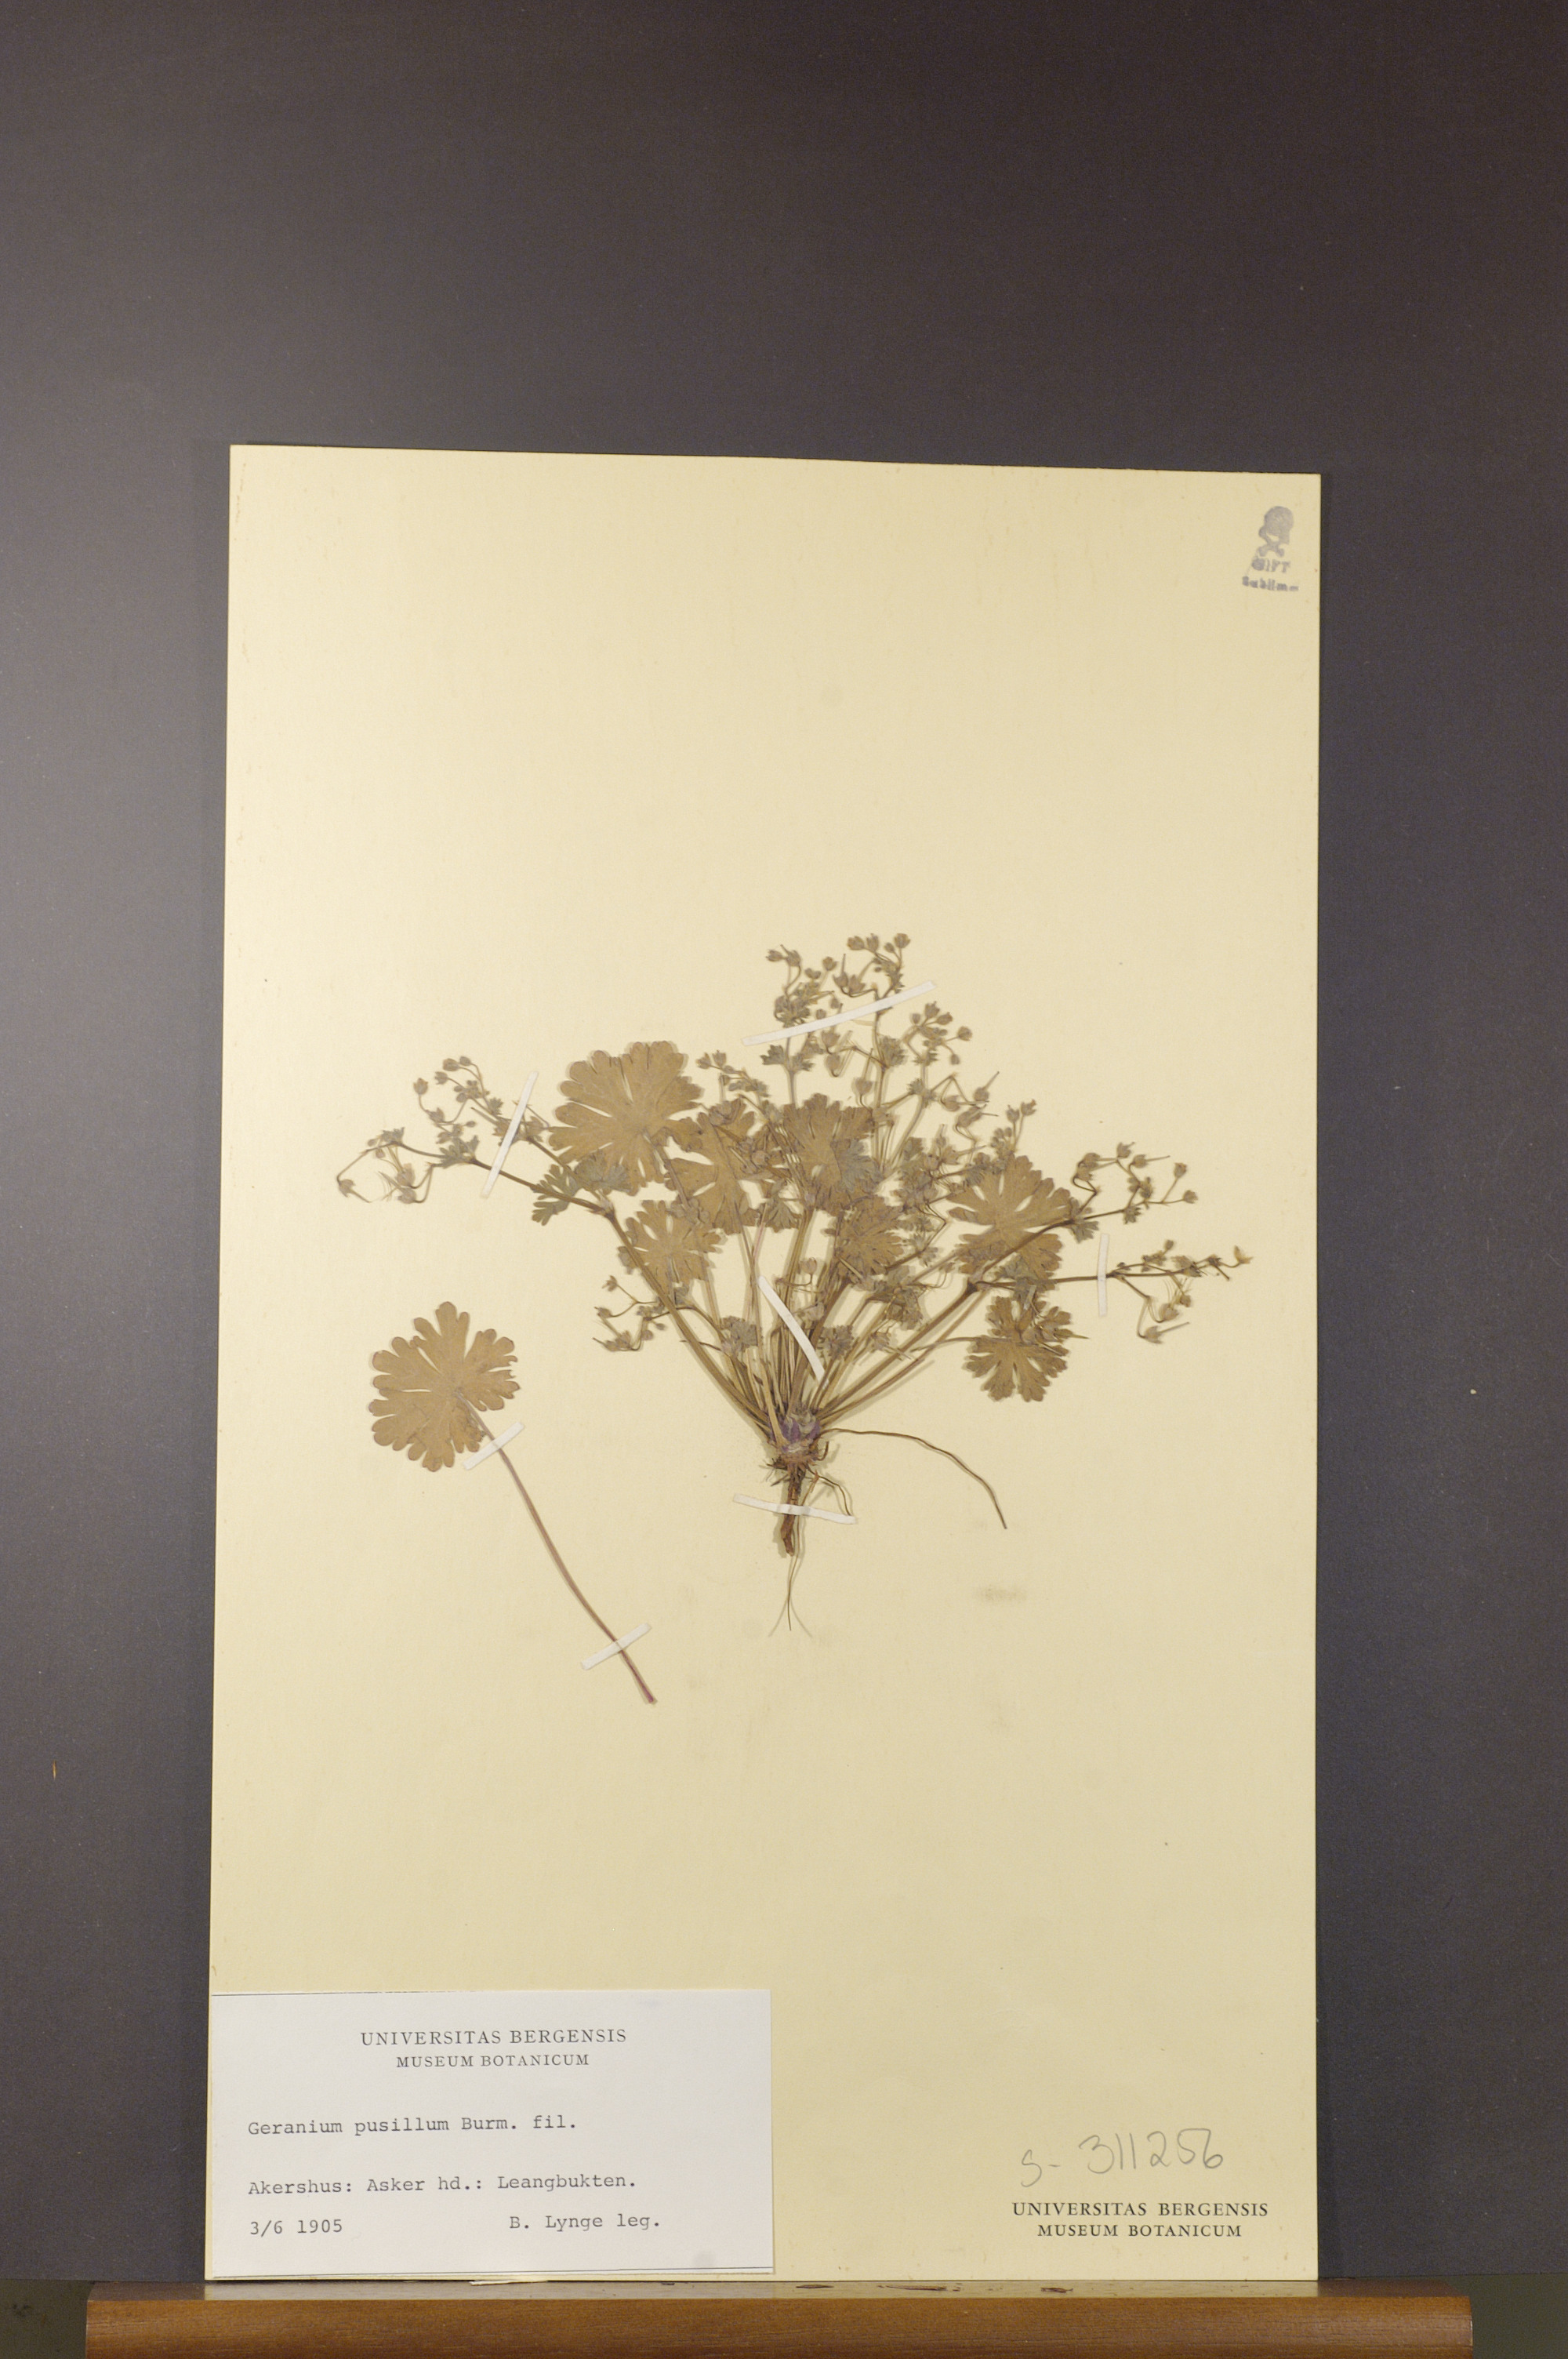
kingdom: Plantae
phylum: Tracheophyta
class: Magnoliopsida
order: Geraniales
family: Geraniaceae
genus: Geranium
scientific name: Geranium pusillum
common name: Small geranium
